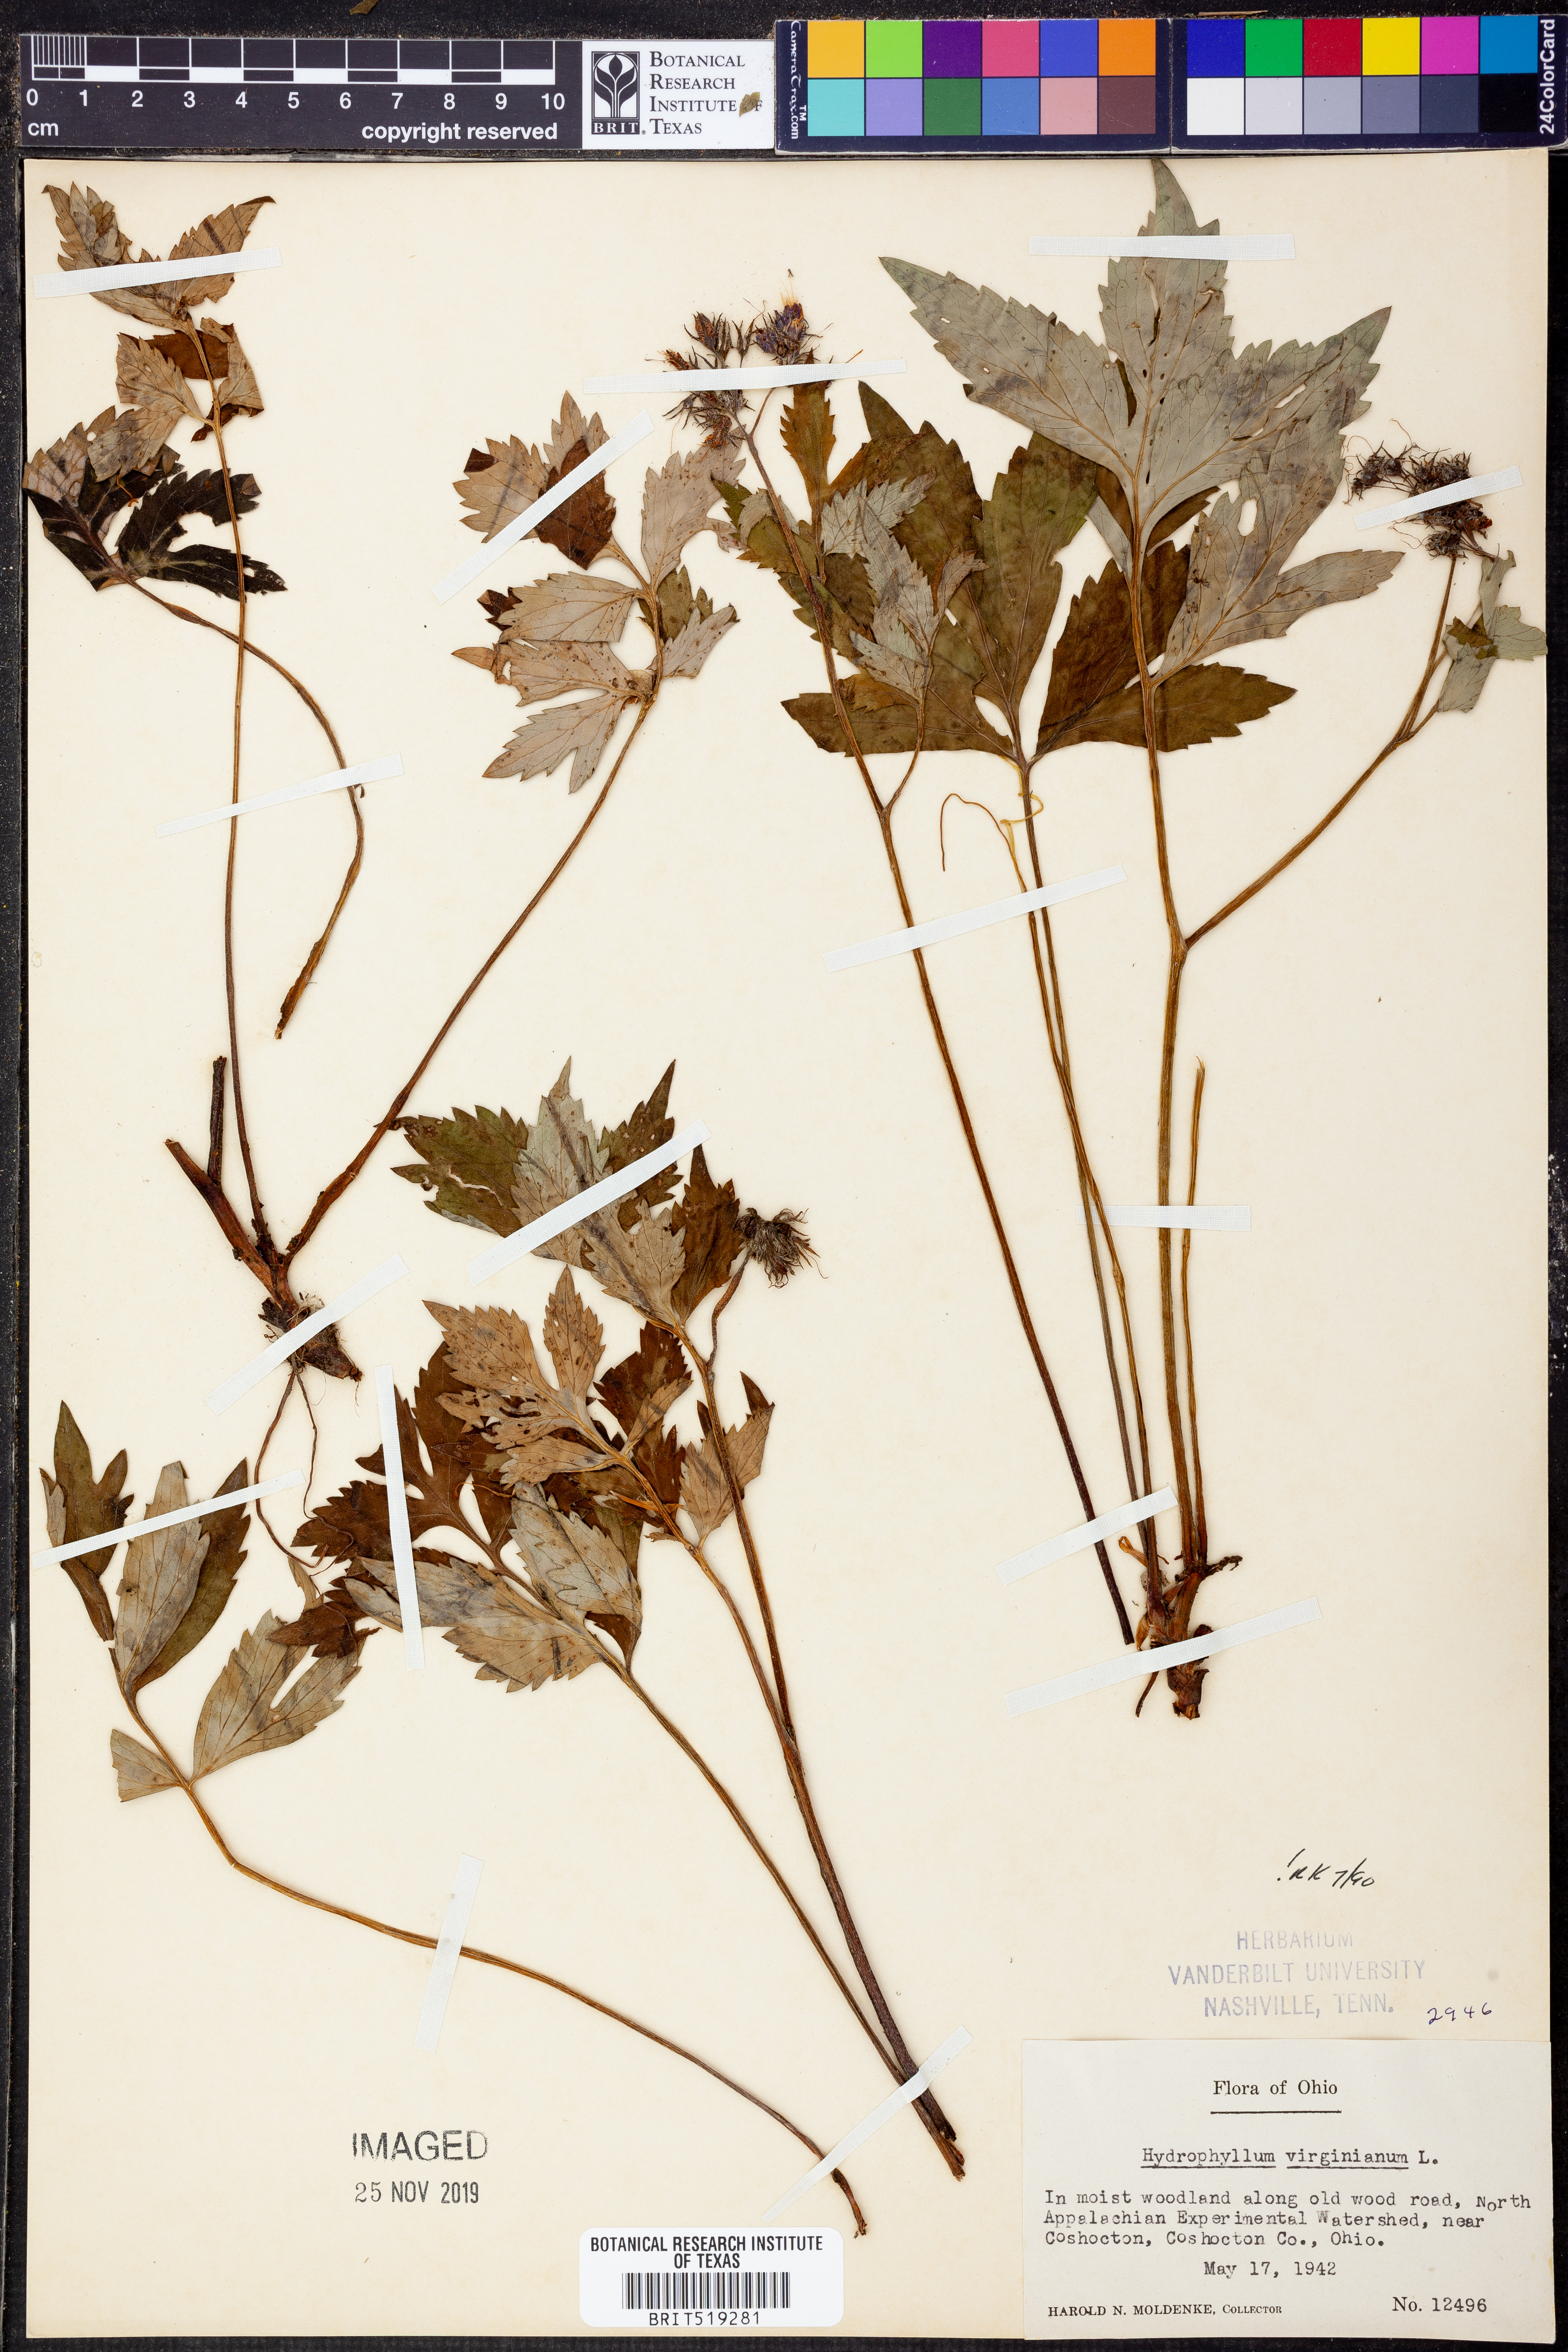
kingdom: Plantae
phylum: Tracheophyta
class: Magnoliopsida
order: Boraginales
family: Hydrophyllaceae
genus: Hydrophyllum
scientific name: Hydrophyllum virginianum
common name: Virginia waterleaf
